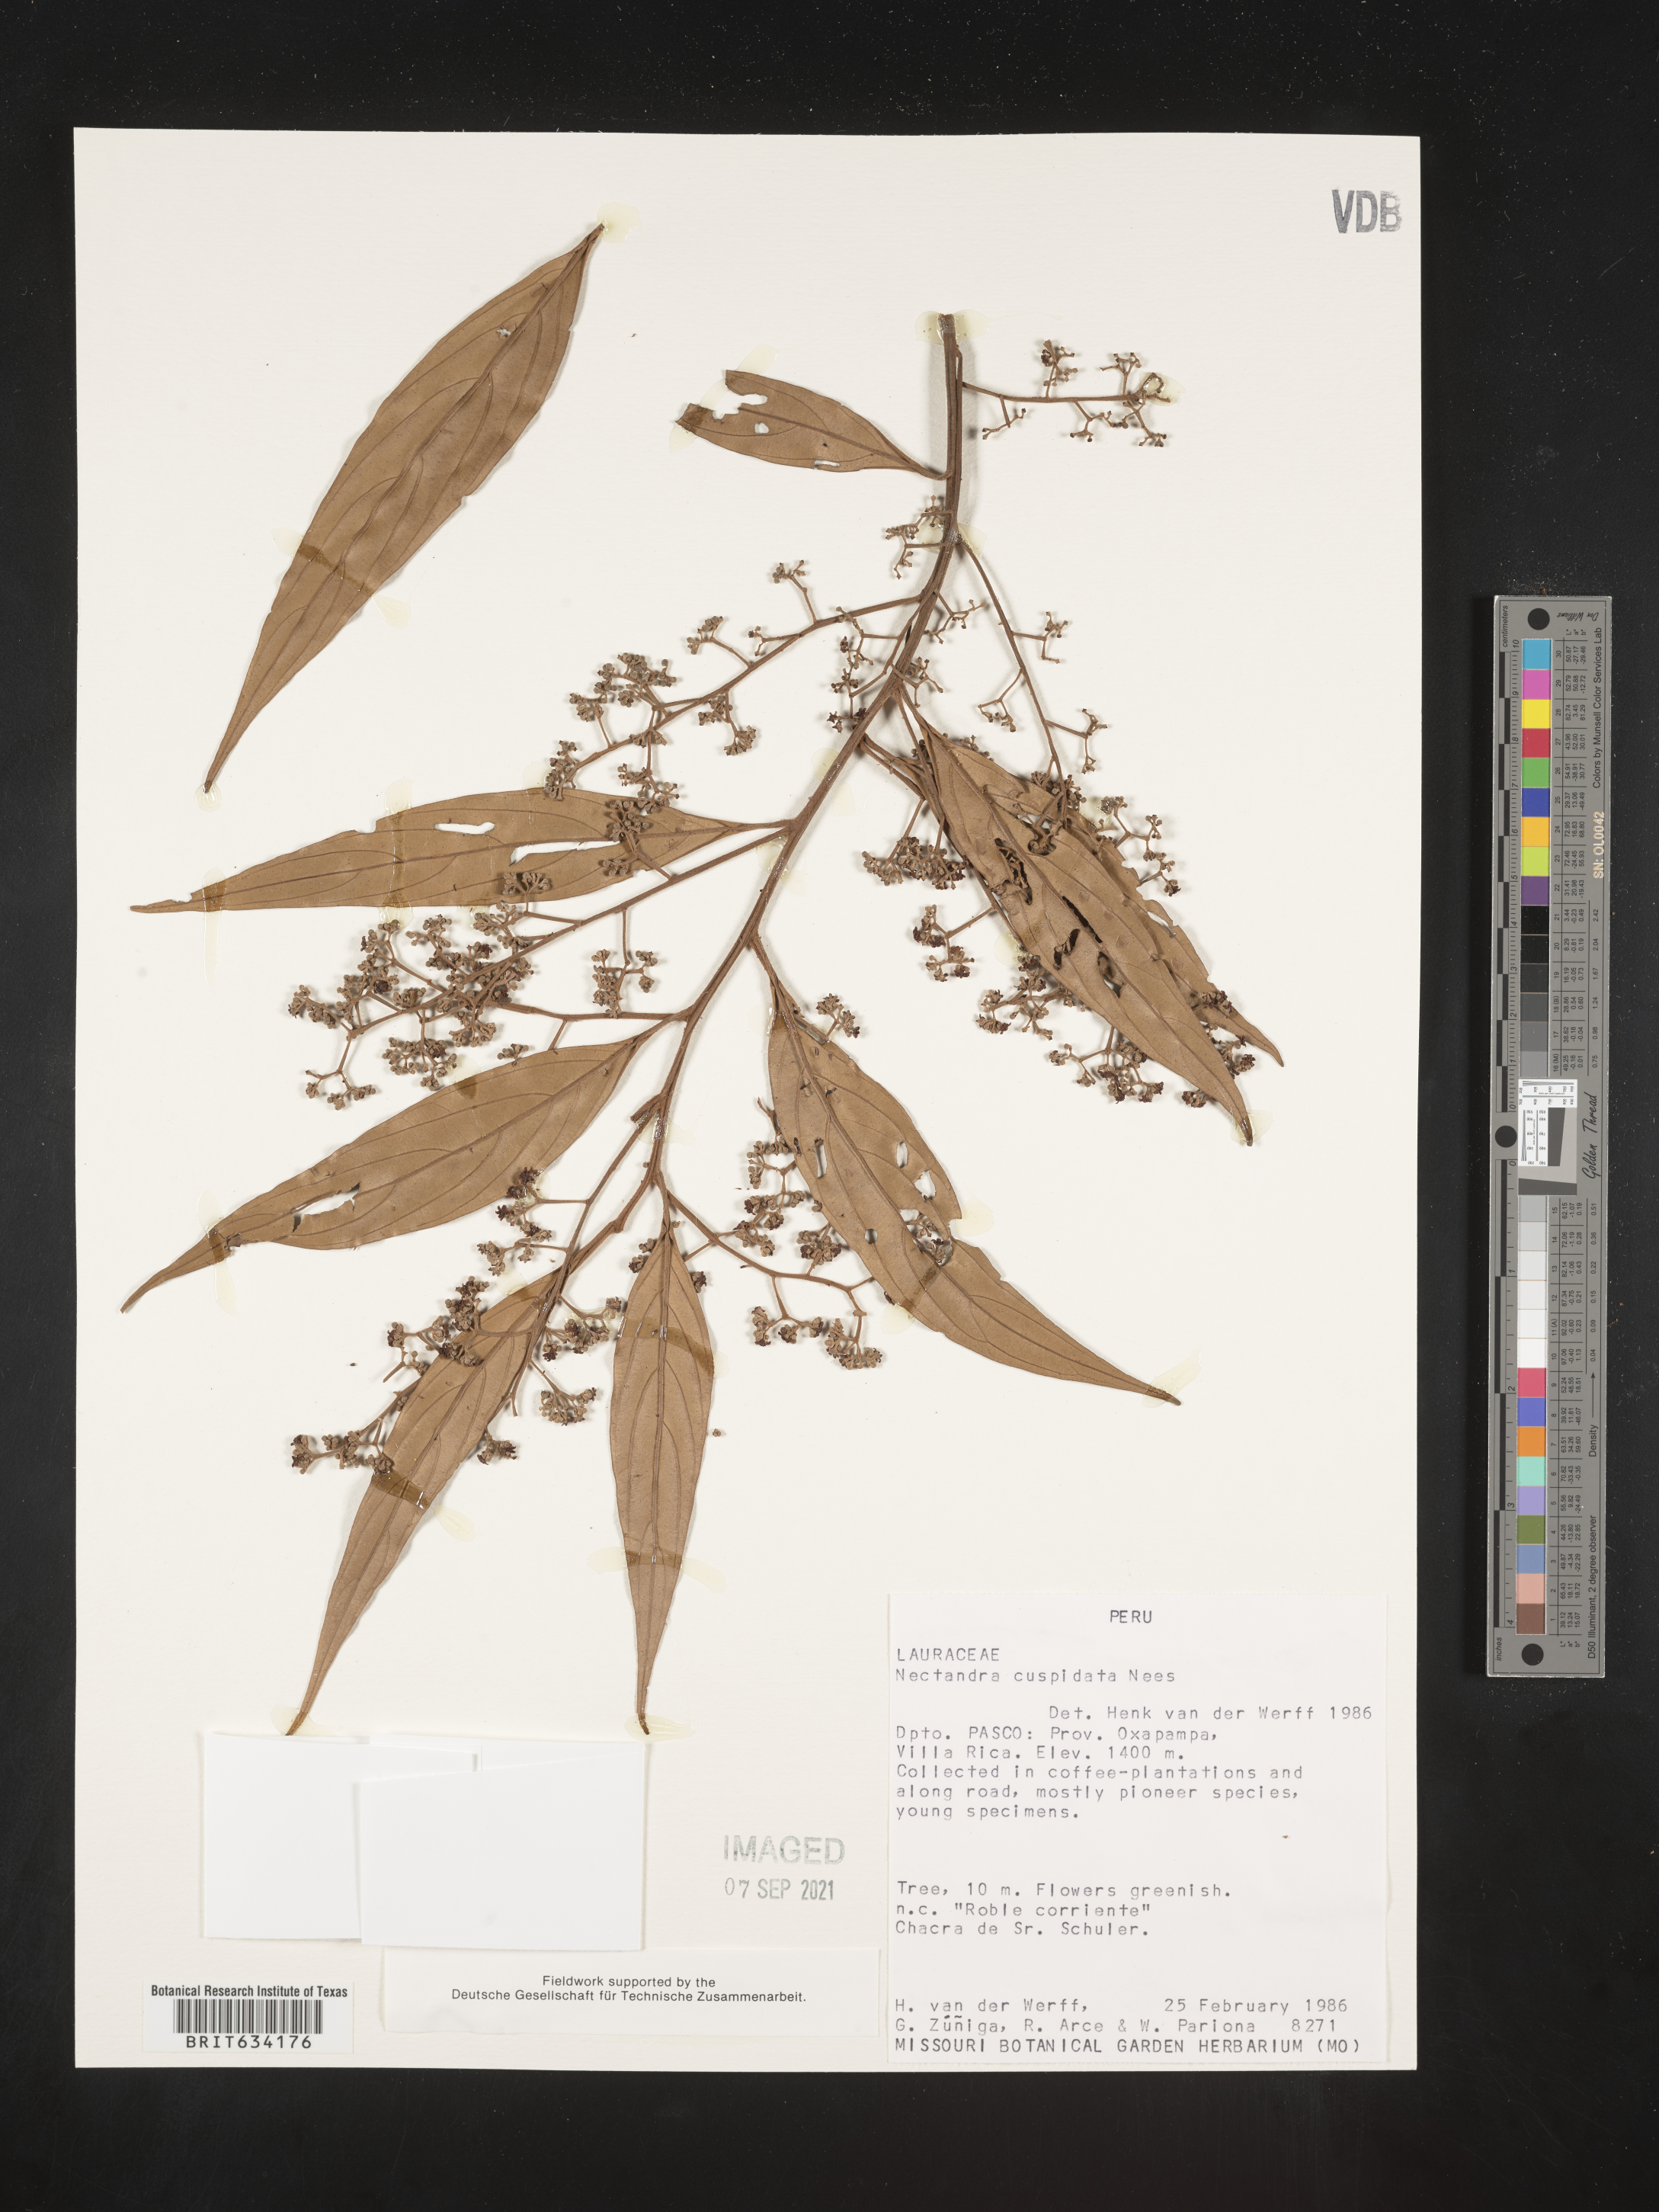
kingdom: Plantae
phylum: Tracheophyta
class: Magnoliopsida
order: Laurales
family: Lauraceae
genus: Nectandra
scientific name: Nectandra
